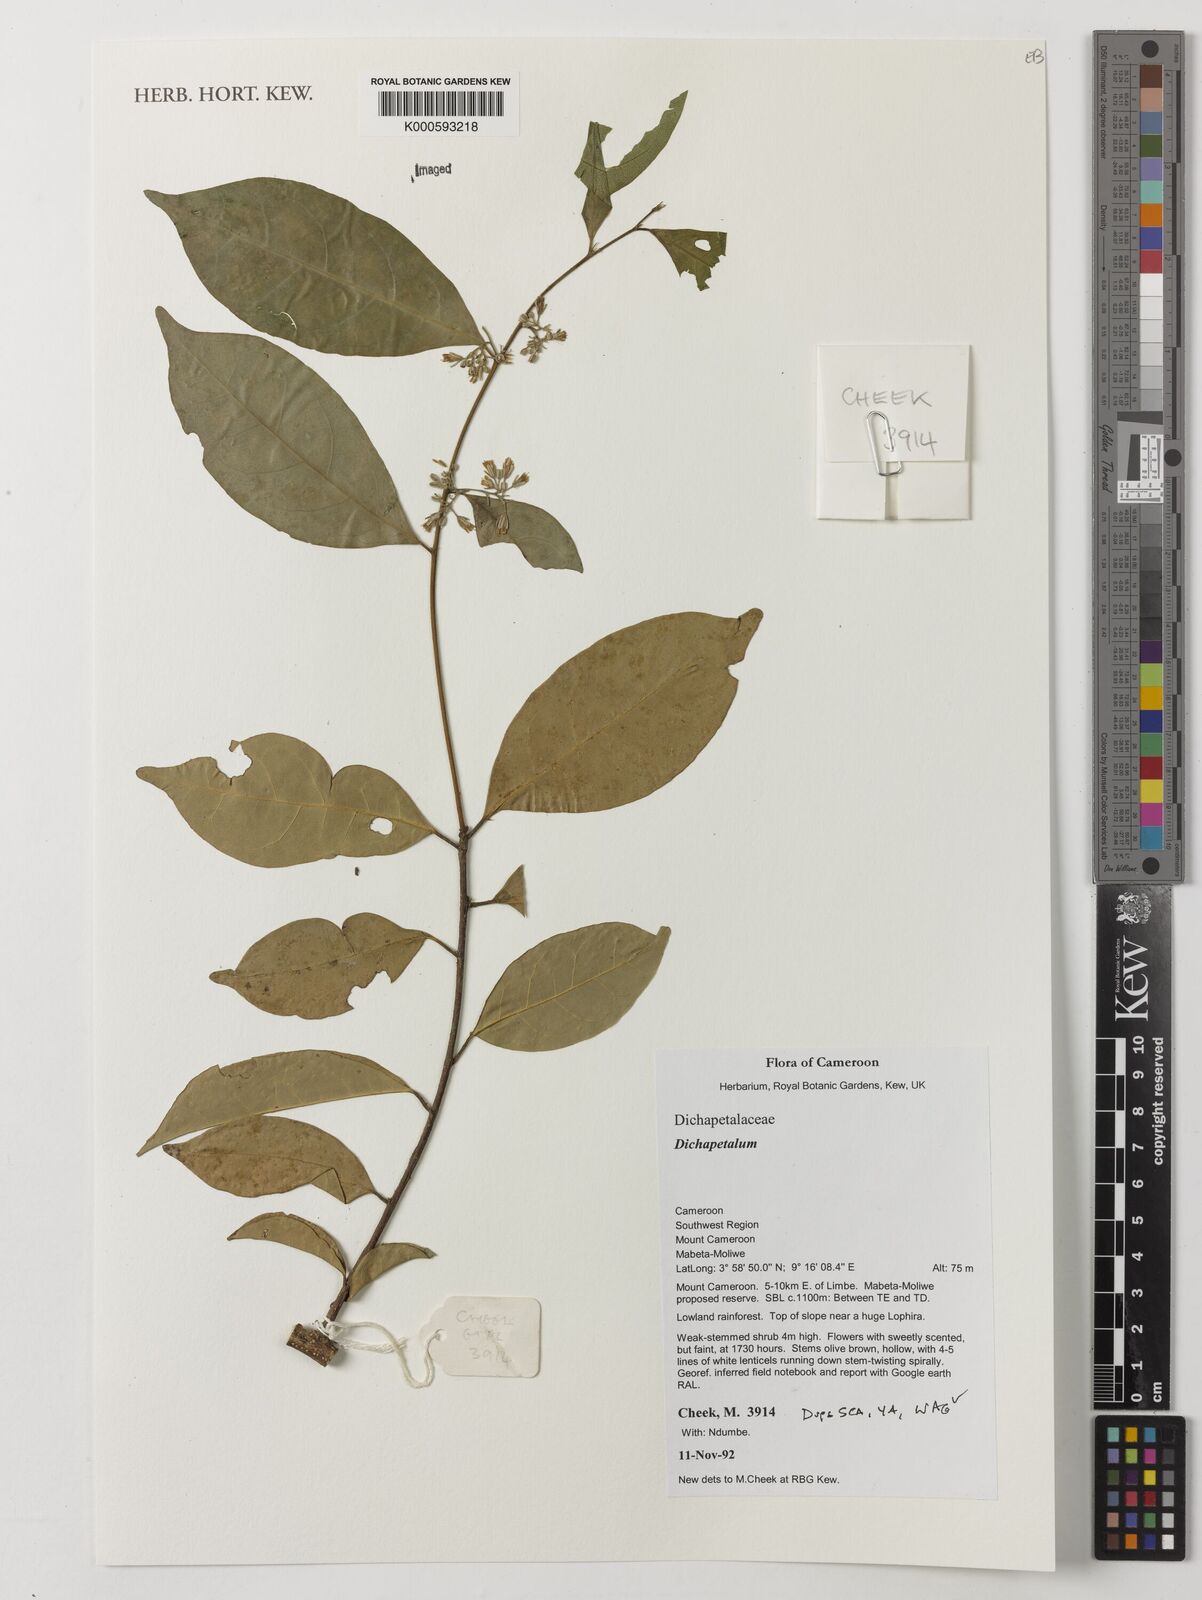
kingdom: Plantae
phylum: Tracheophyta
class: Magnoliopsida
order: Malpighiales
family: Dichapetalaceae
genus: Dichapetalum
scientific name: Dichapetalum
